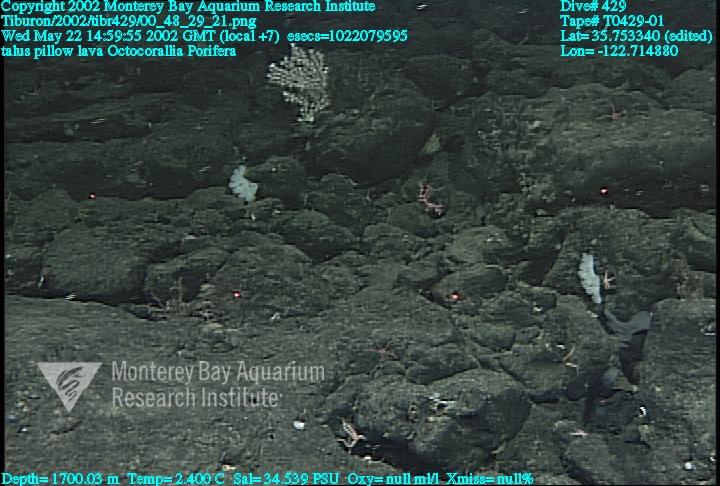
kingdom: Animalia
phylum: Porifera
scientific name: Porifera
